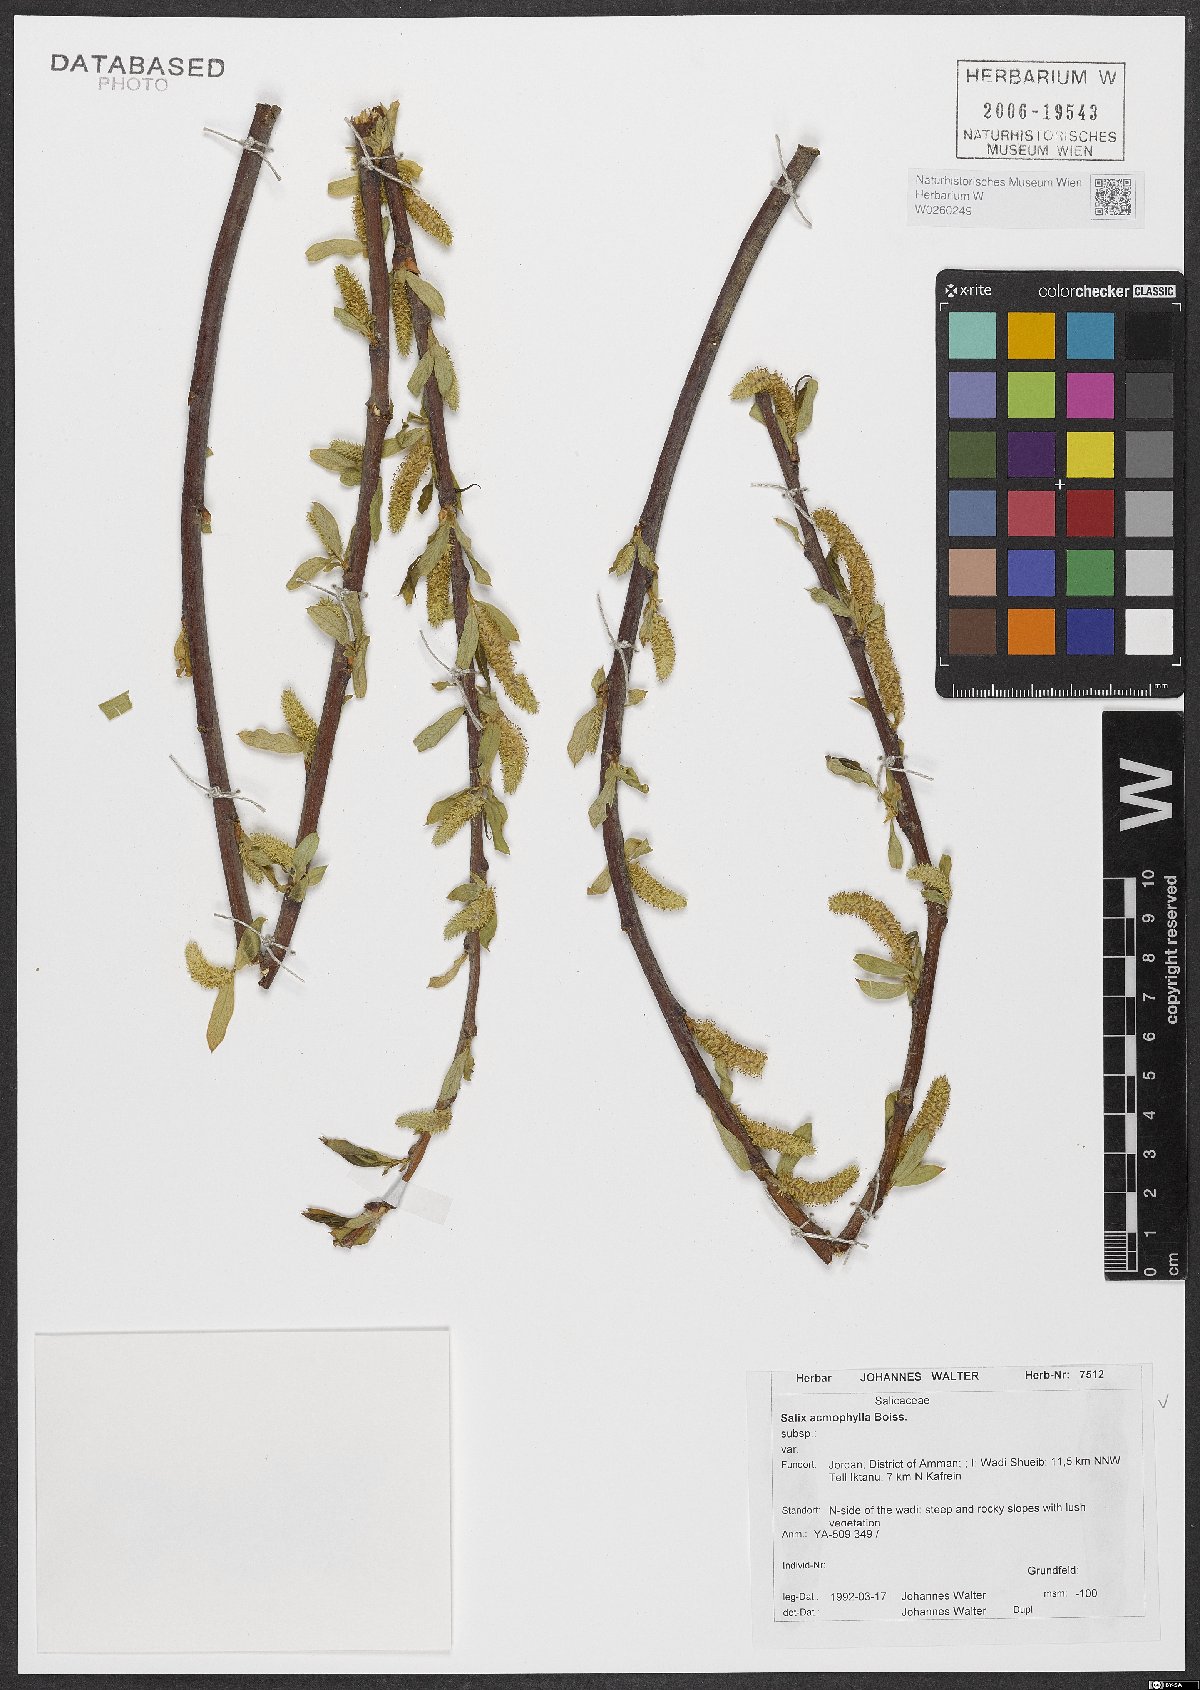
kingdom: Plantae
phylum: Tracheophyta
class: Magnoliopsida
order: Malpighiales
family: Salicaceae
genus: Salix
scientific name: Salix acmophylla
